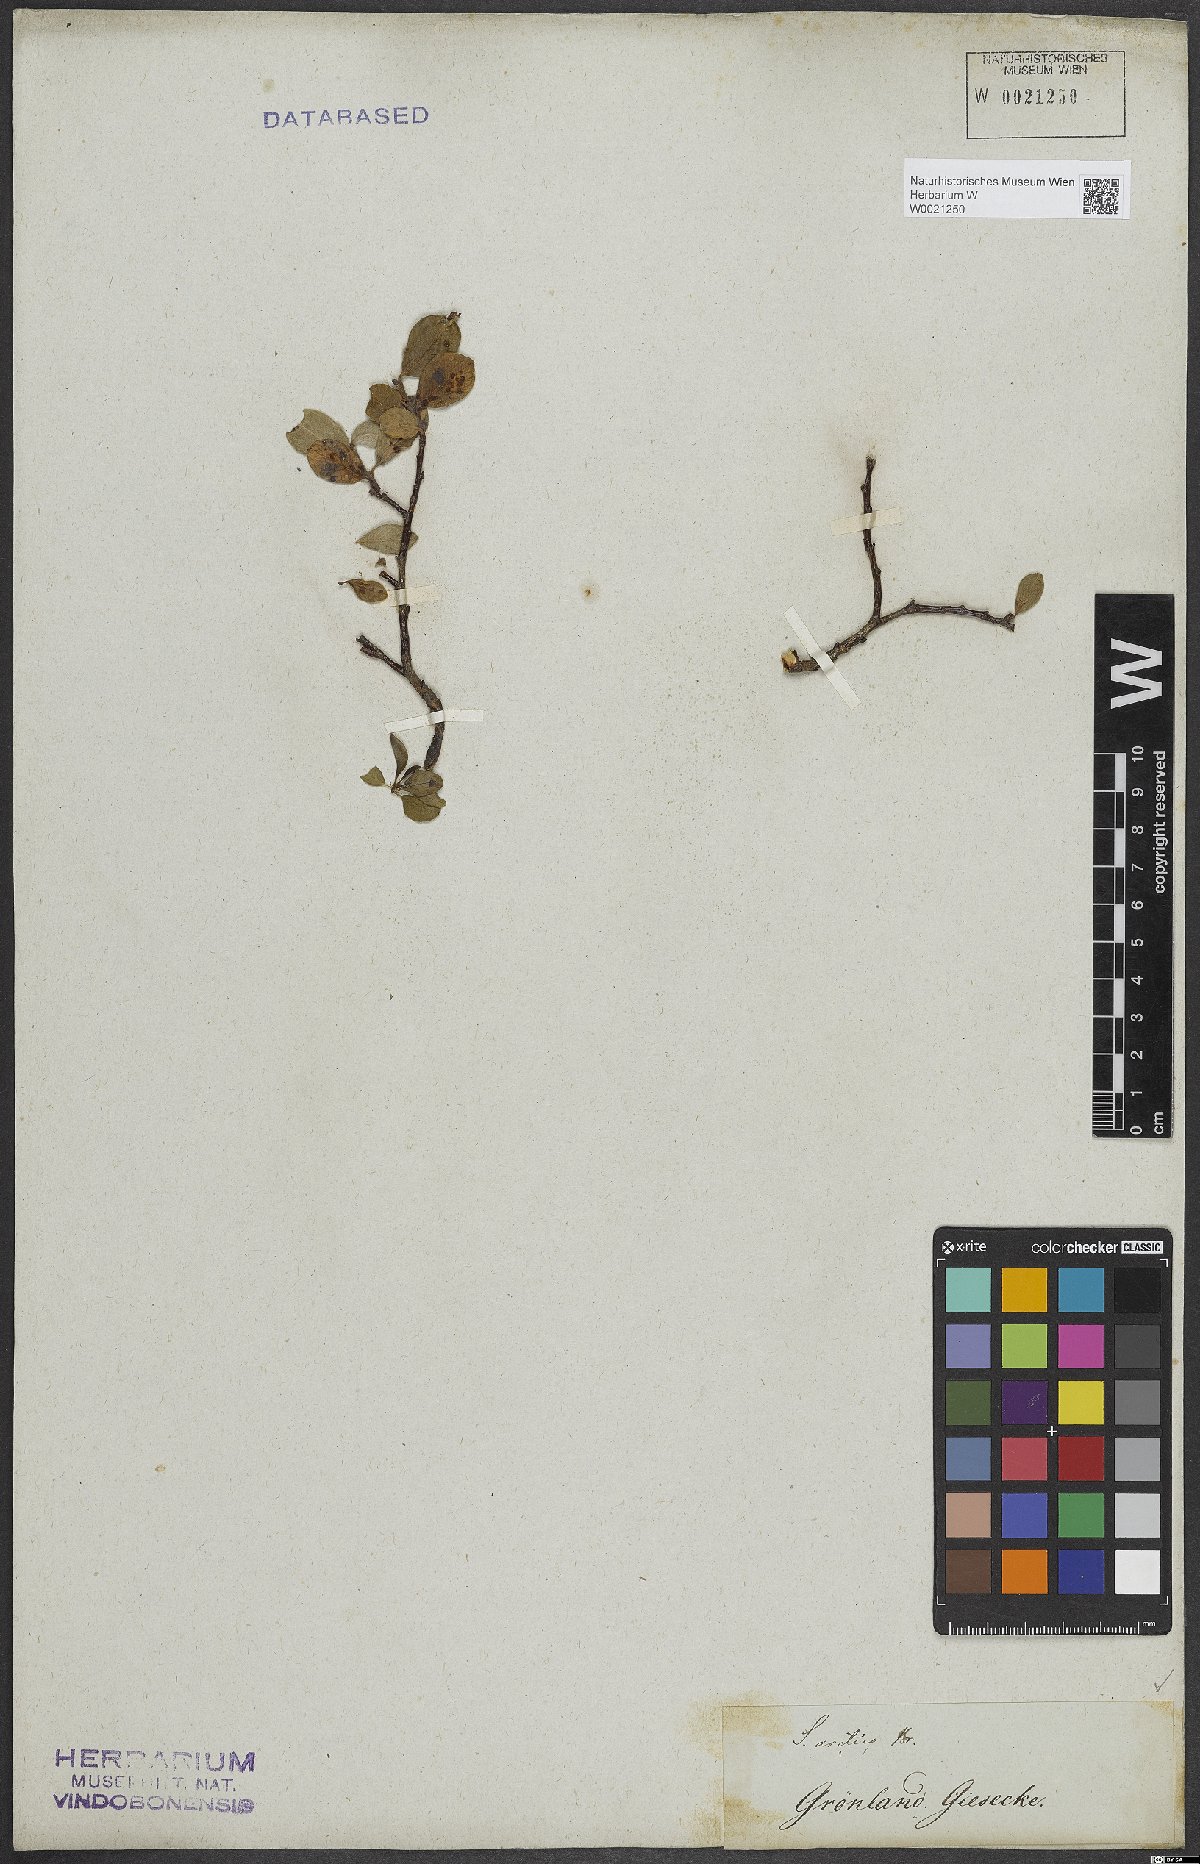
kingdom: Plantae
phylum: Tracheophyta
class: Magnoliopsida
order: Malpighiales
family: Salicaceae
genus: Salix
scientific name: Salix arctica
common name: Arctic willow
